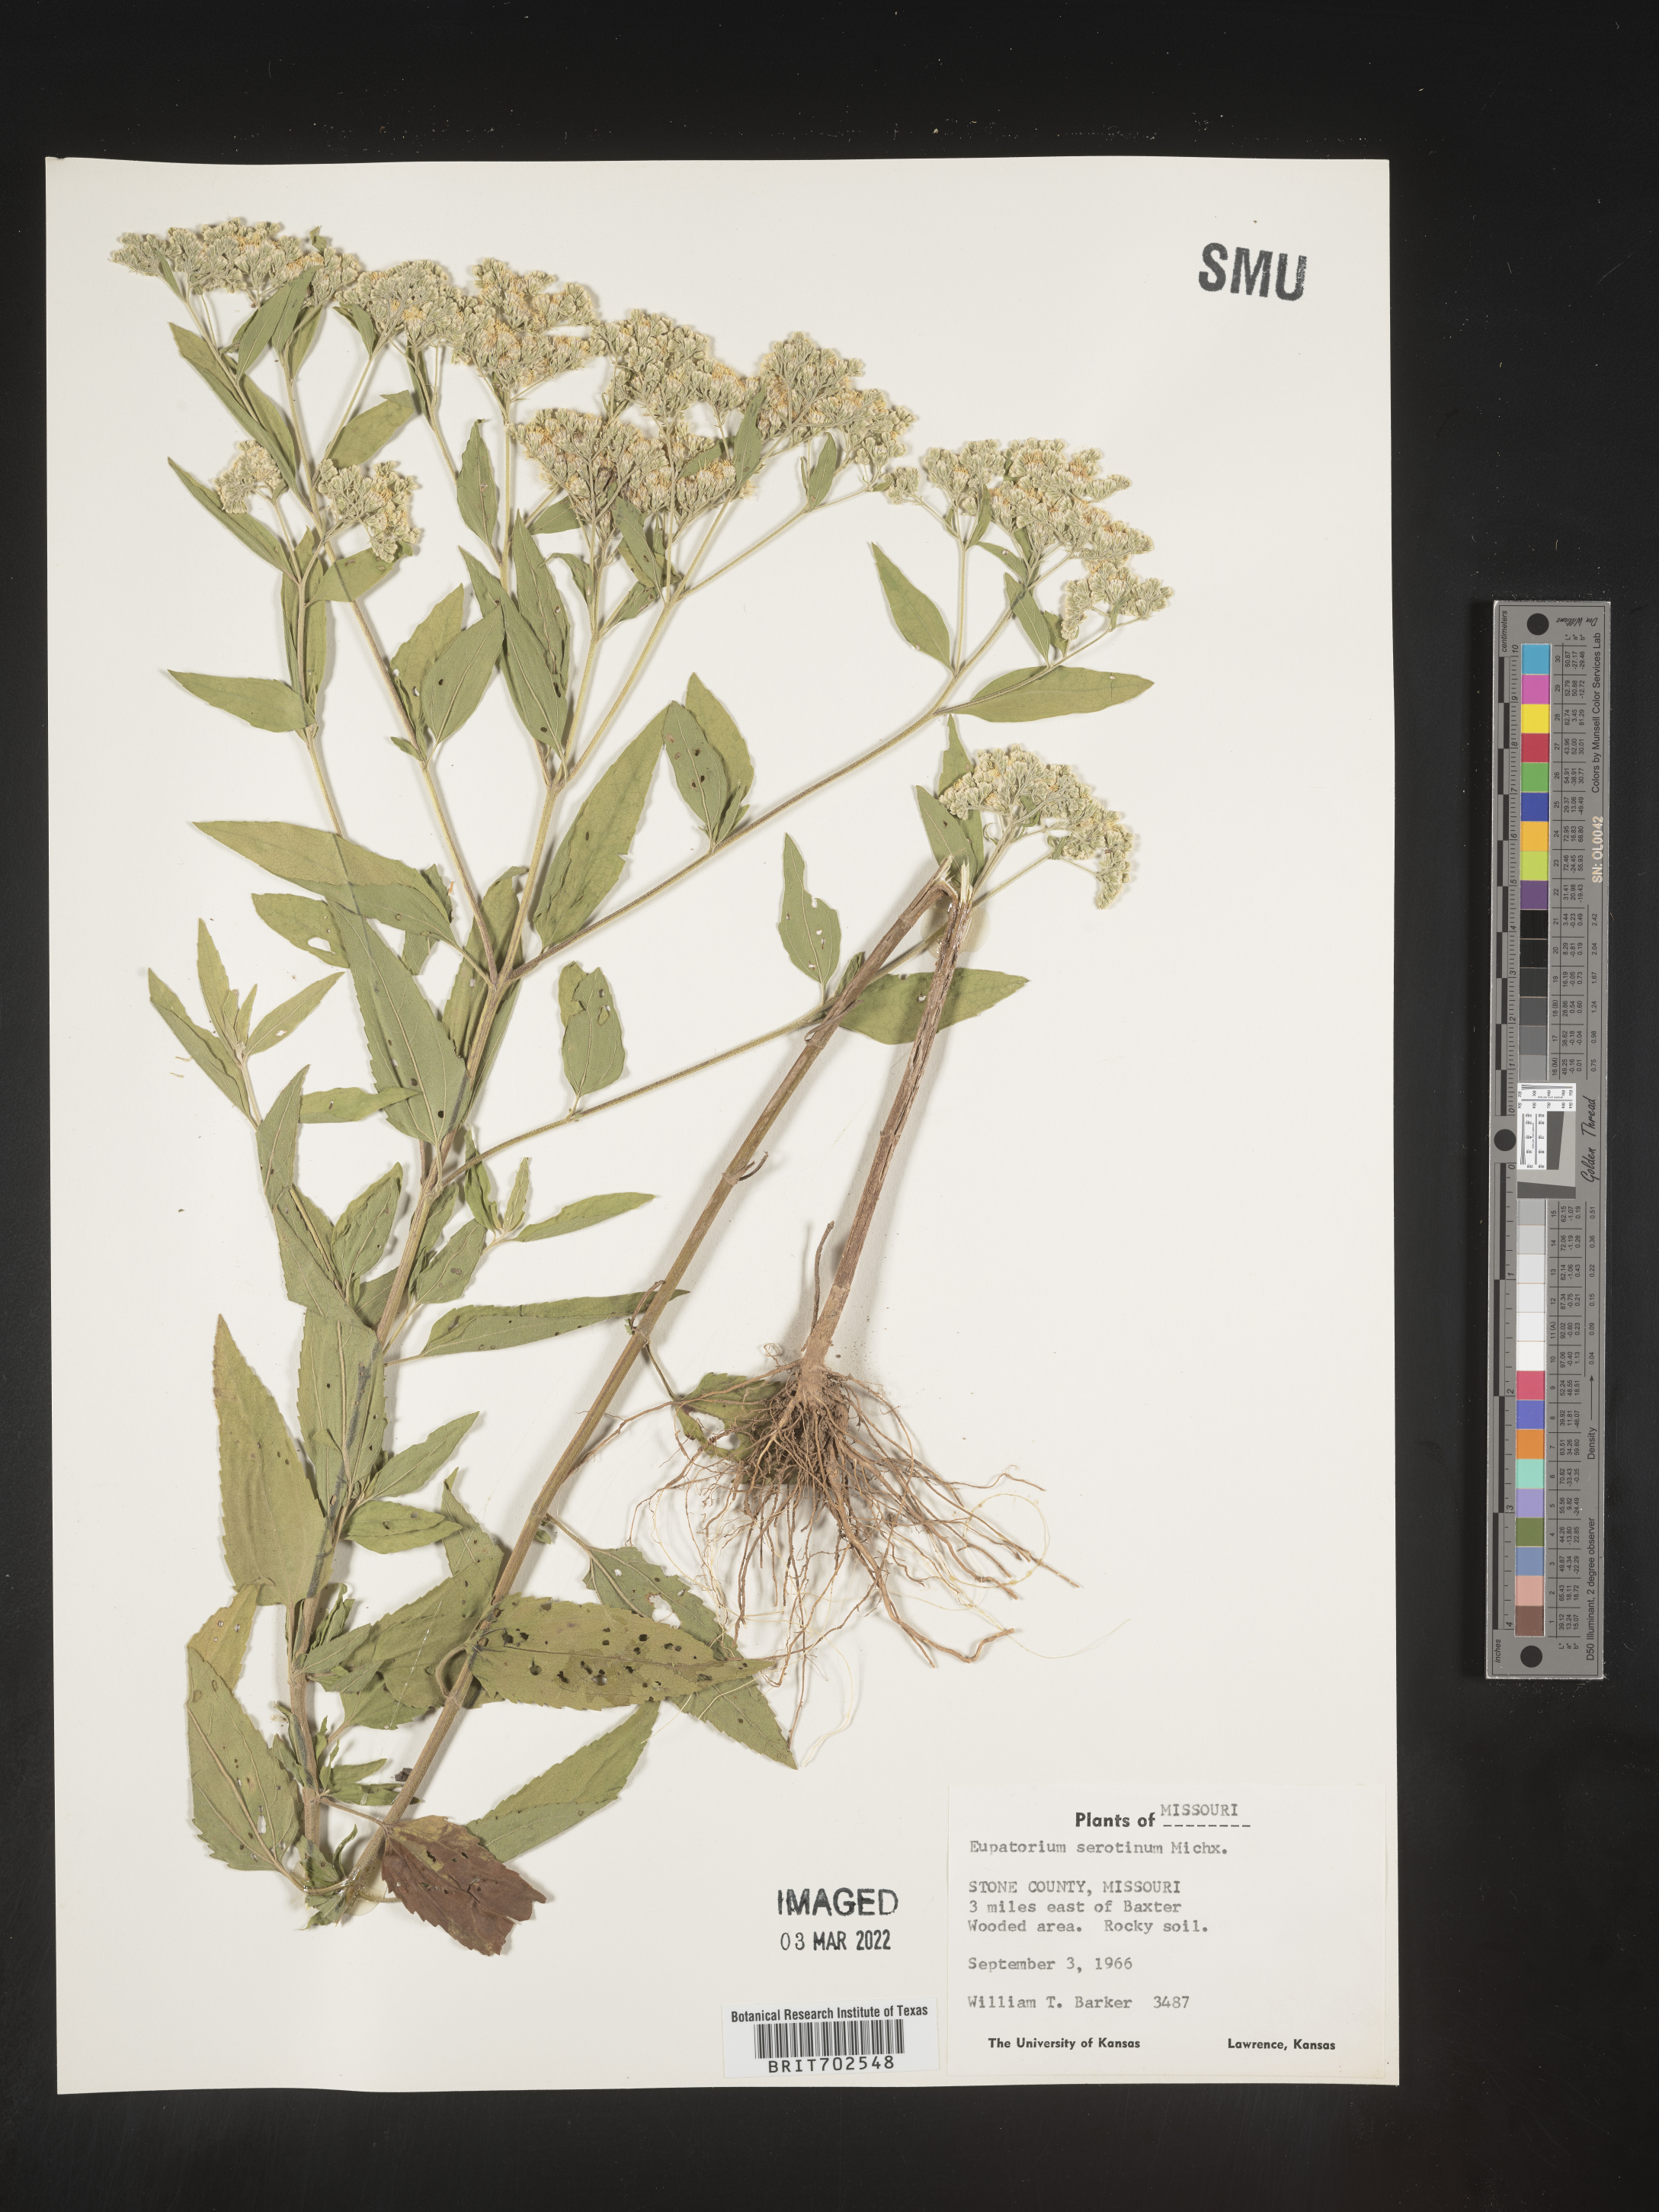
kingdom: Plantae
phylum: Tracheophyta
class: Magnoliopsida
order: Asterales
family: Asteraceae
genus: Eupatorium
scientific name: Eupatorium serotinum
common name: Late boneset
